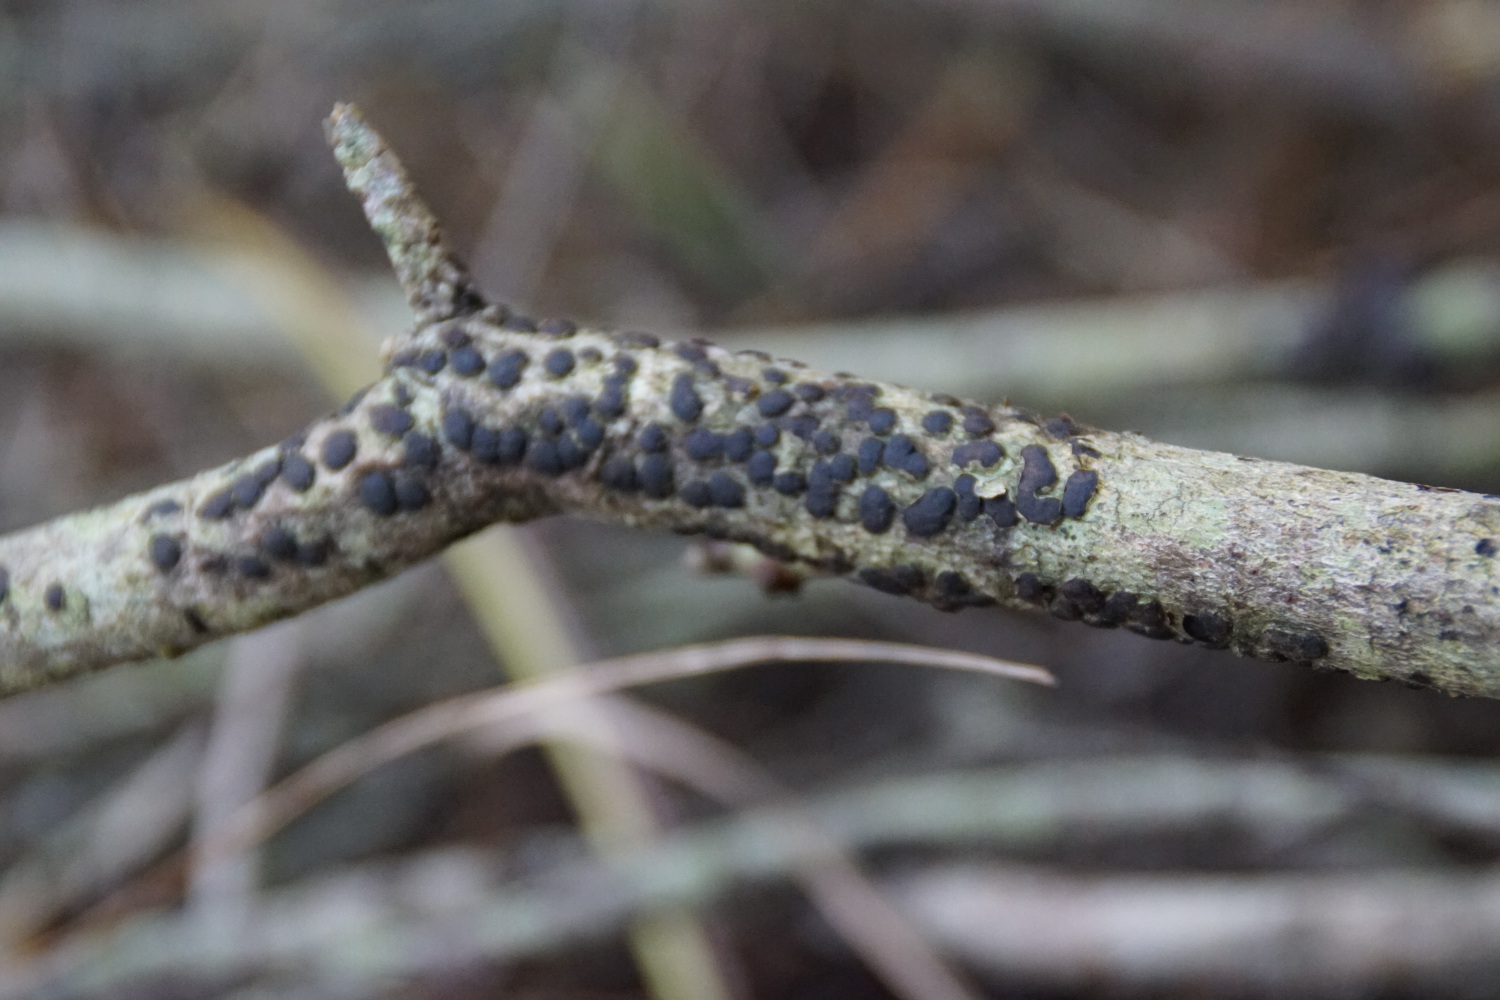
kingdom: Fungi
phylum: Ascomycota
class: Sordariomycetes
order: Xylariales
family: Diatrypaceae
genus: Diatrype
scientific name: Diatrype bullata
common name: pile-kulskorpe
